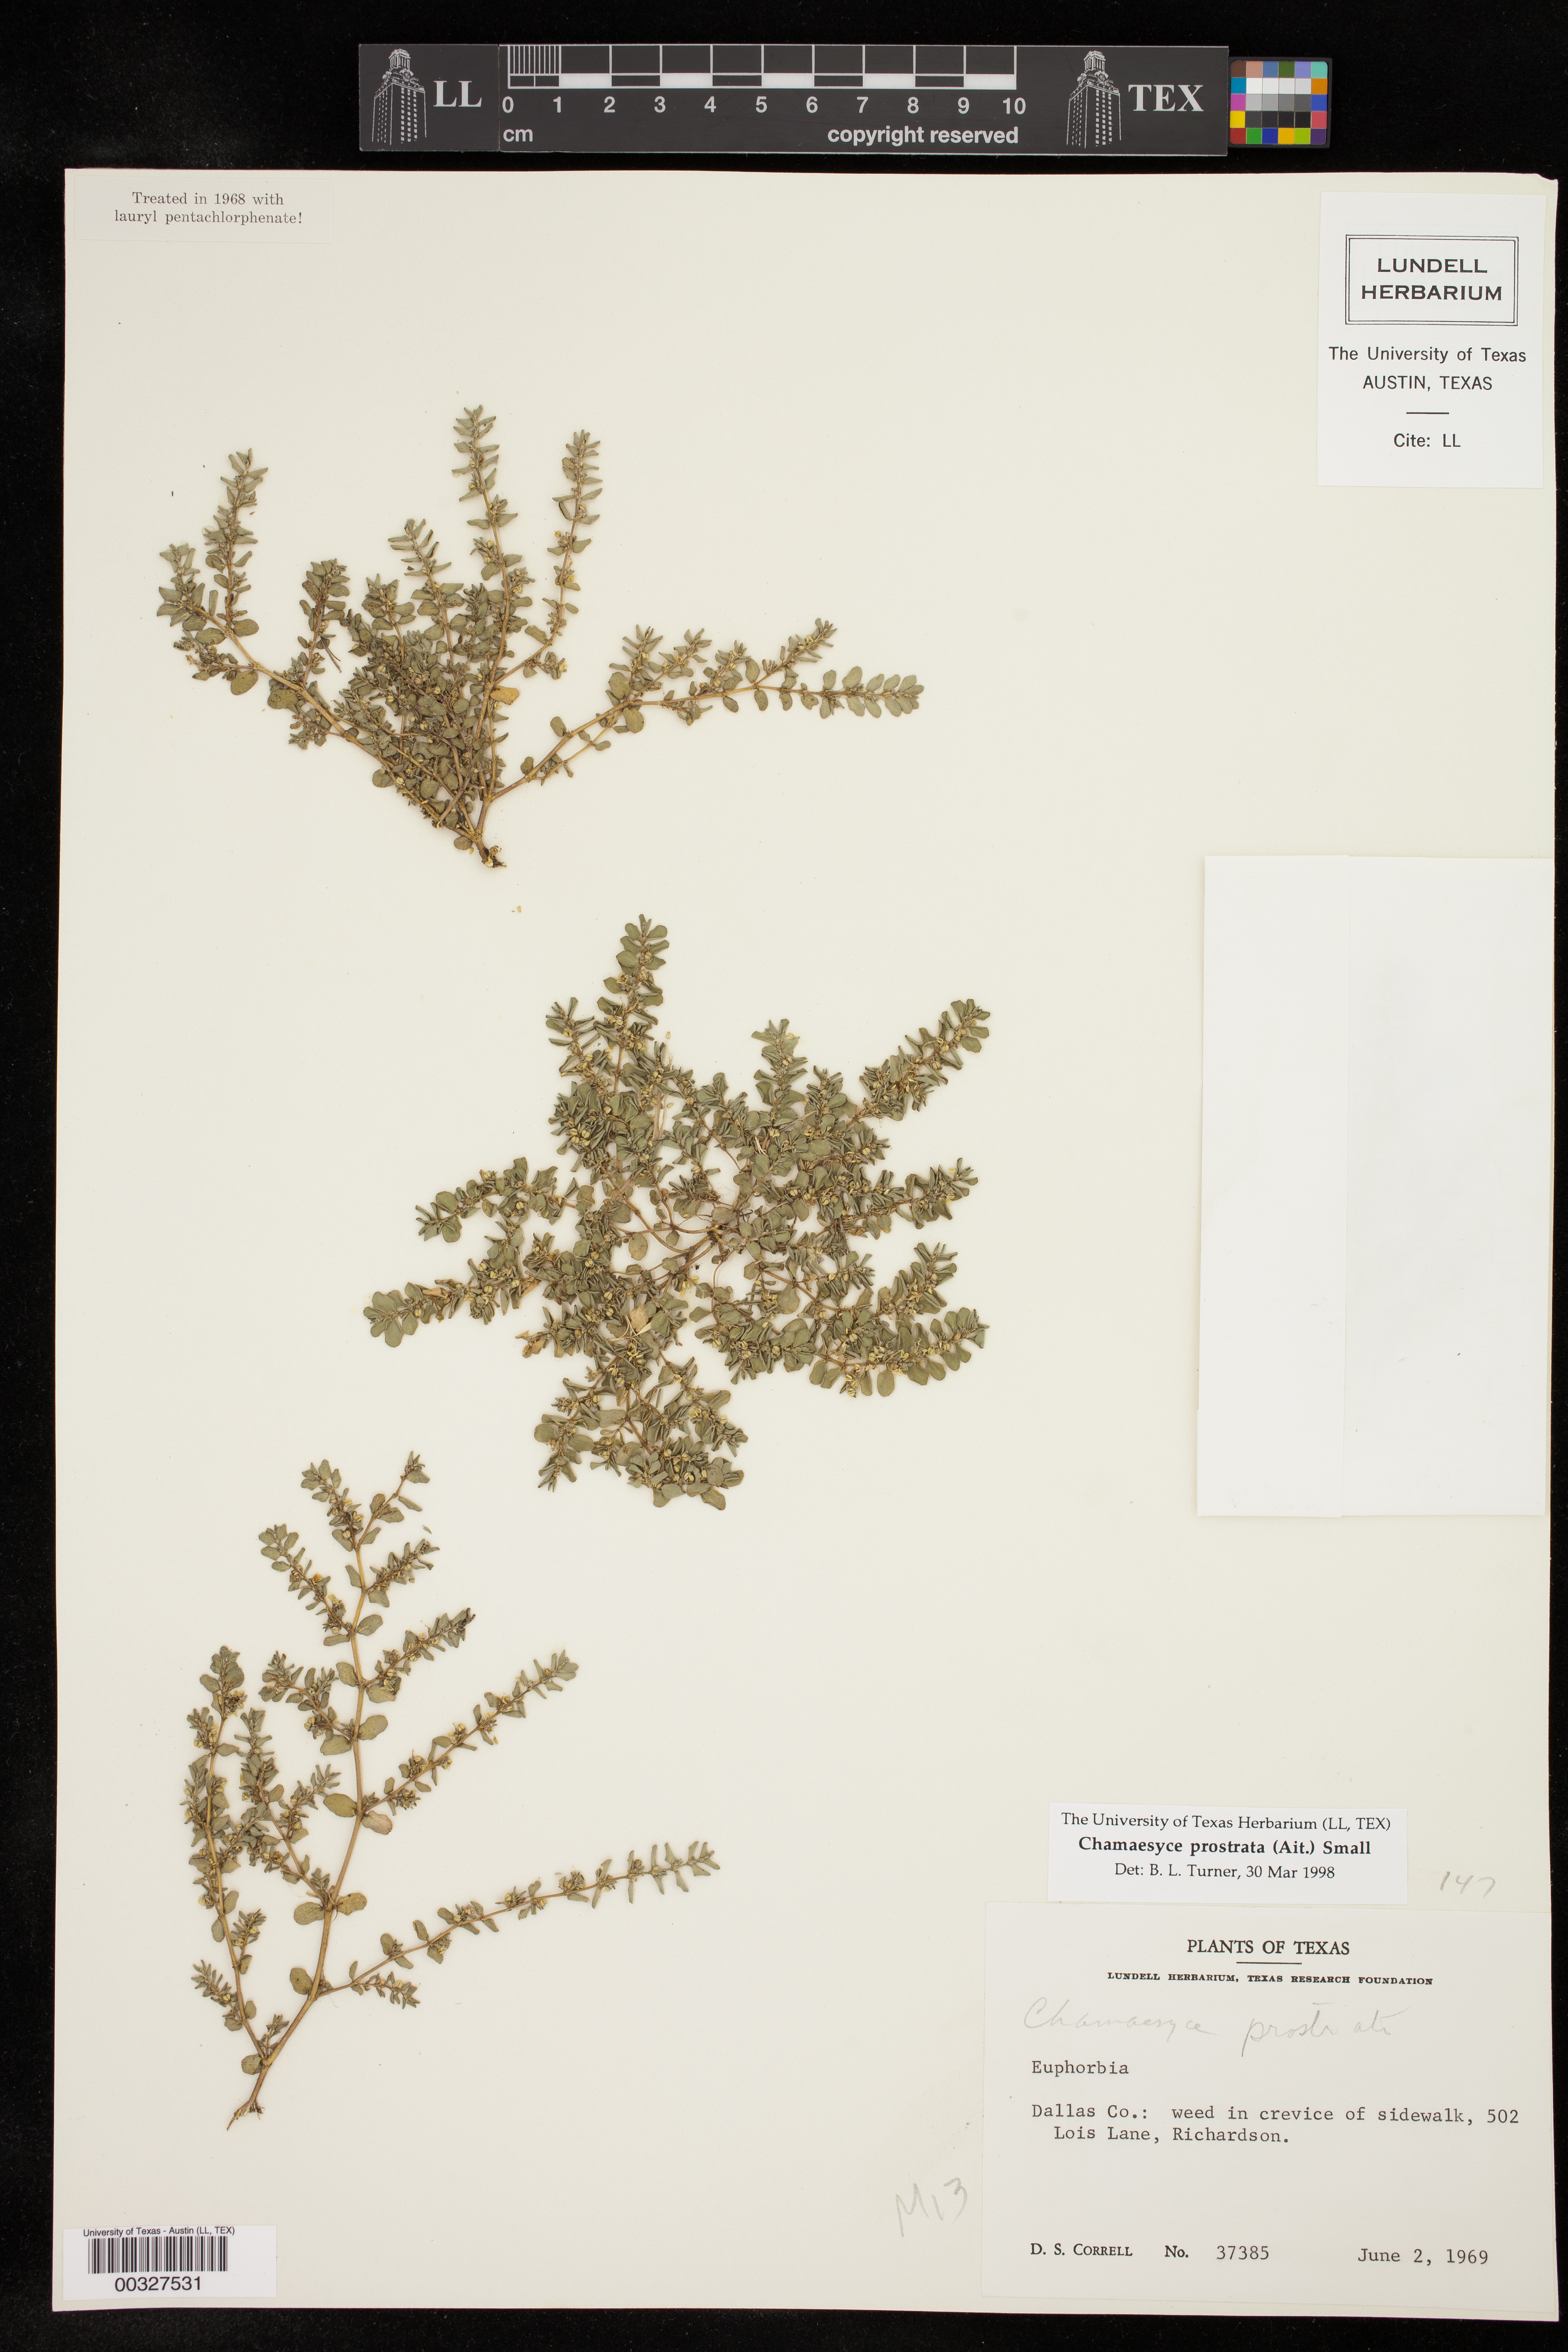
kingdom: Plantae
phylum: Tracheophyta
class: Magnoliopsida
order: Malpighiales
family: Euphorbiaceae
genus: Euphorbia
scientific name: Euphorbia prostrata
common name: Prostrate sandmat
